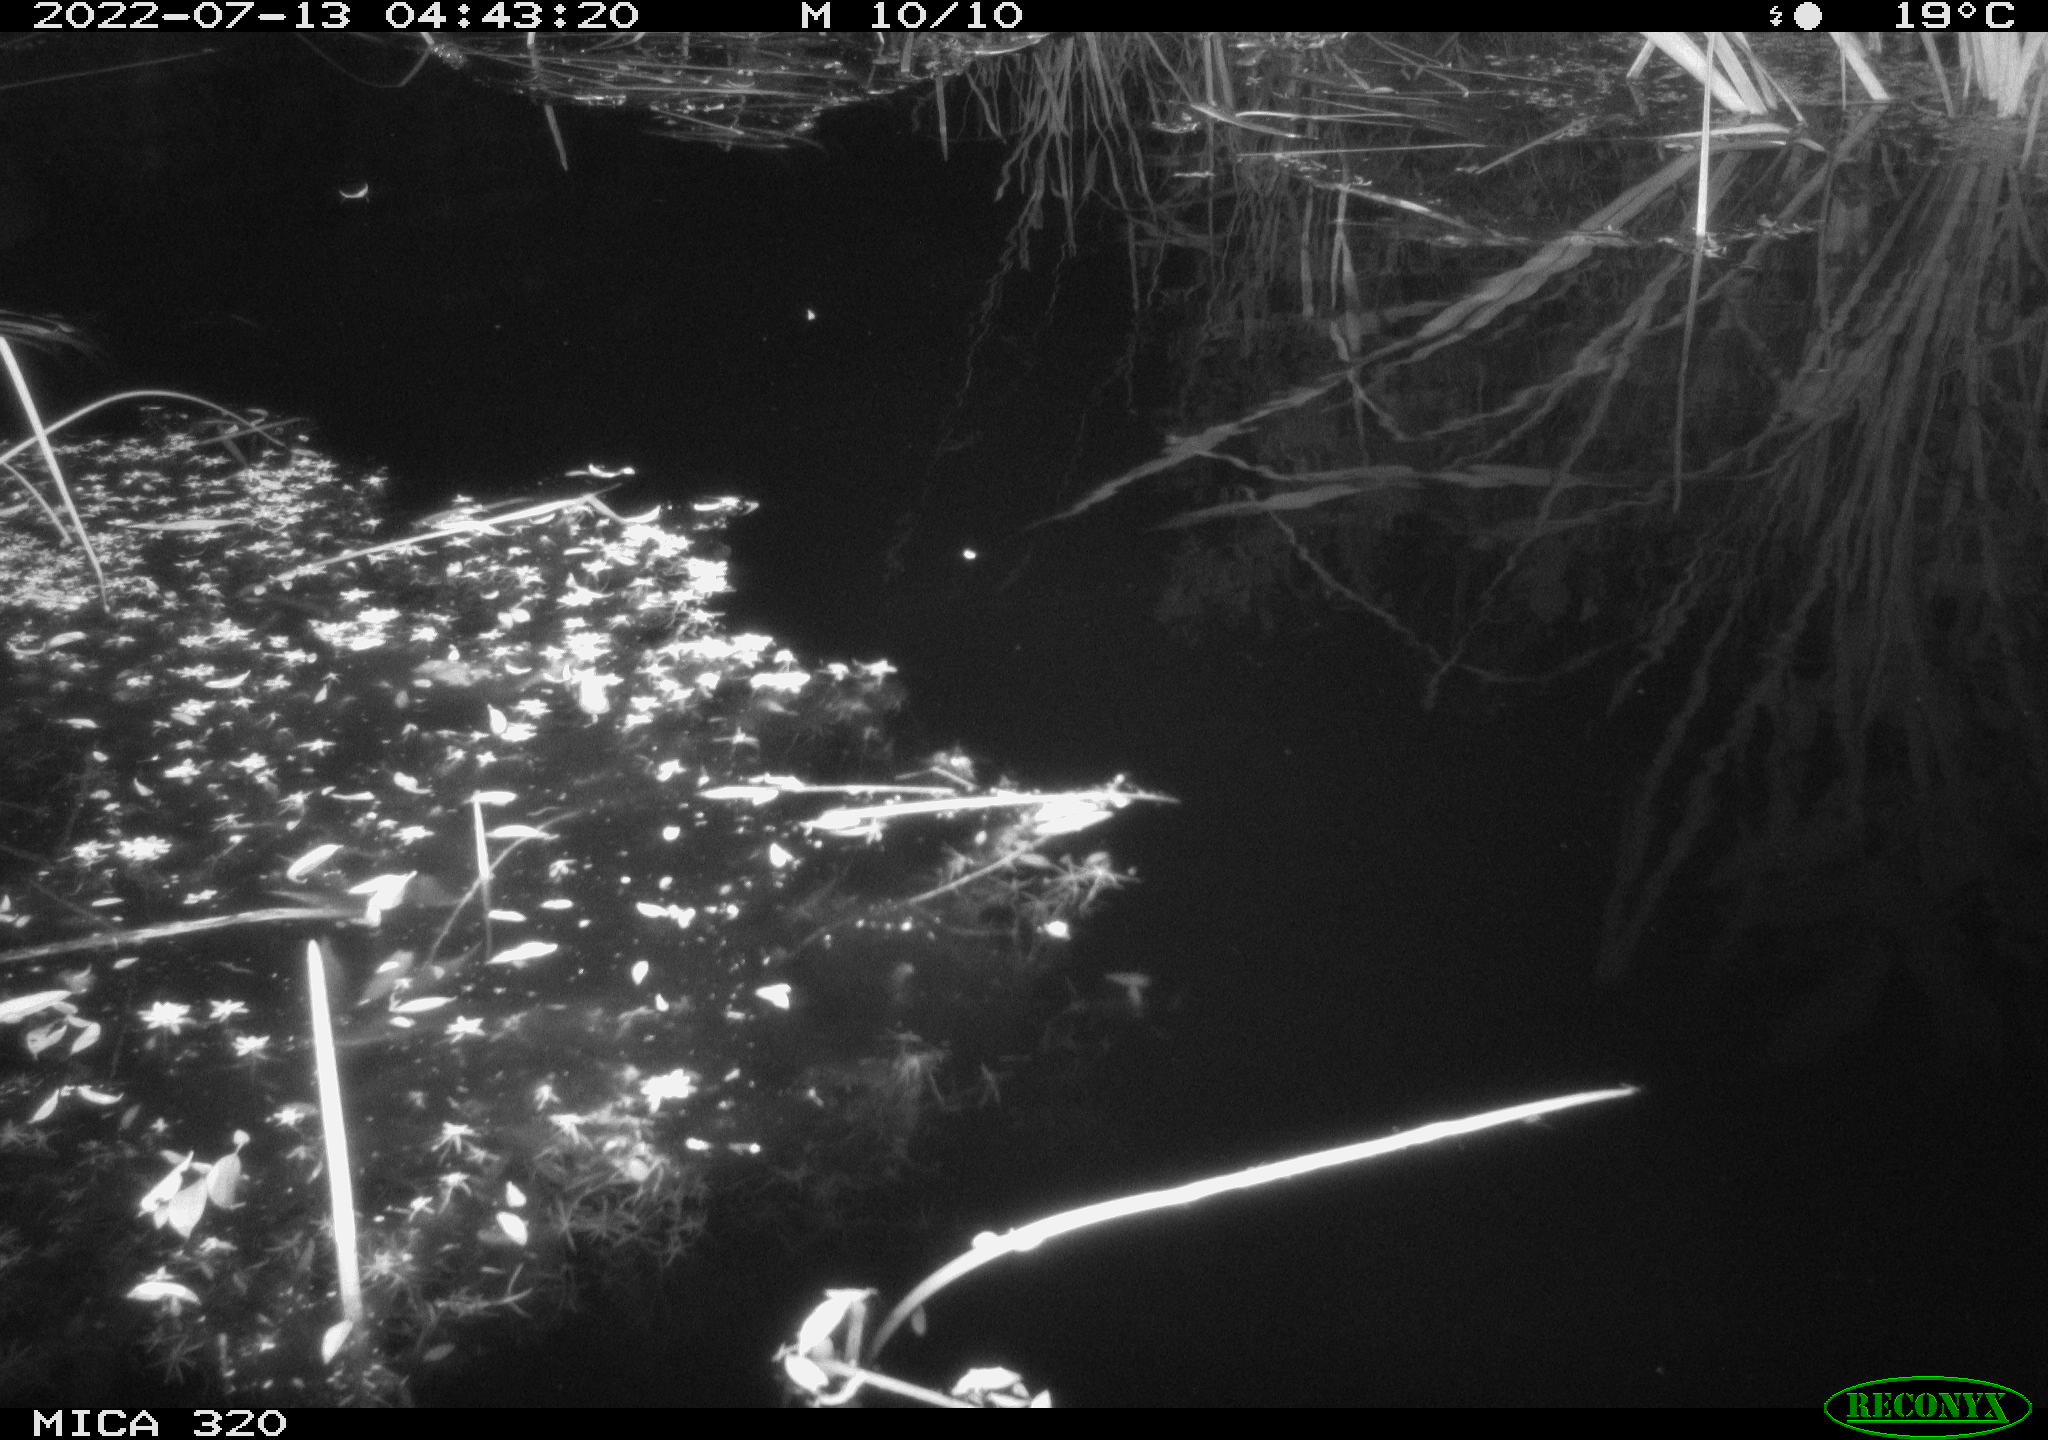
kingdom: Animalia
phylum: Chordata
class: Aves
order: Anseriformes
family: Anatidae
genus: Anas
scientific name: Anas platyrhynchos
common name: Mallard
